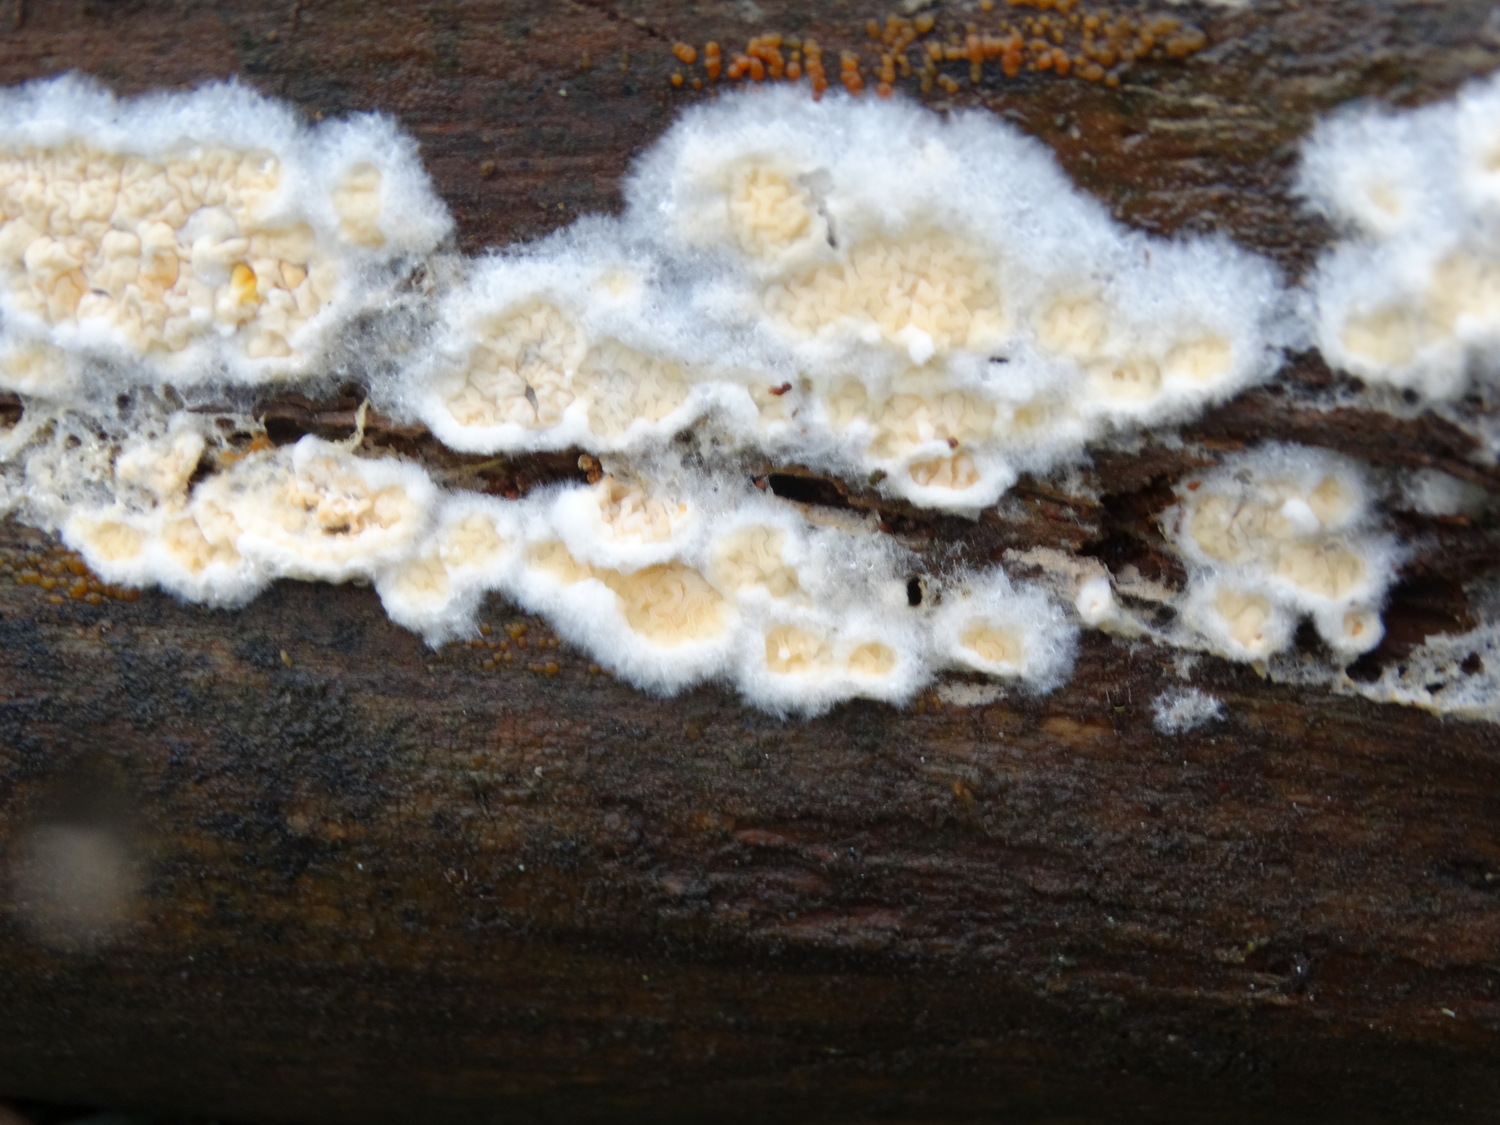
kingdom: Fungi
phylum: Basidiomycota
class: Agaricomycetes
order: Boletales
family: Hygrophoropsidaceae
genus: Leucogyrophana
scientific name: Leucogyrophana
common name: hussvamp
